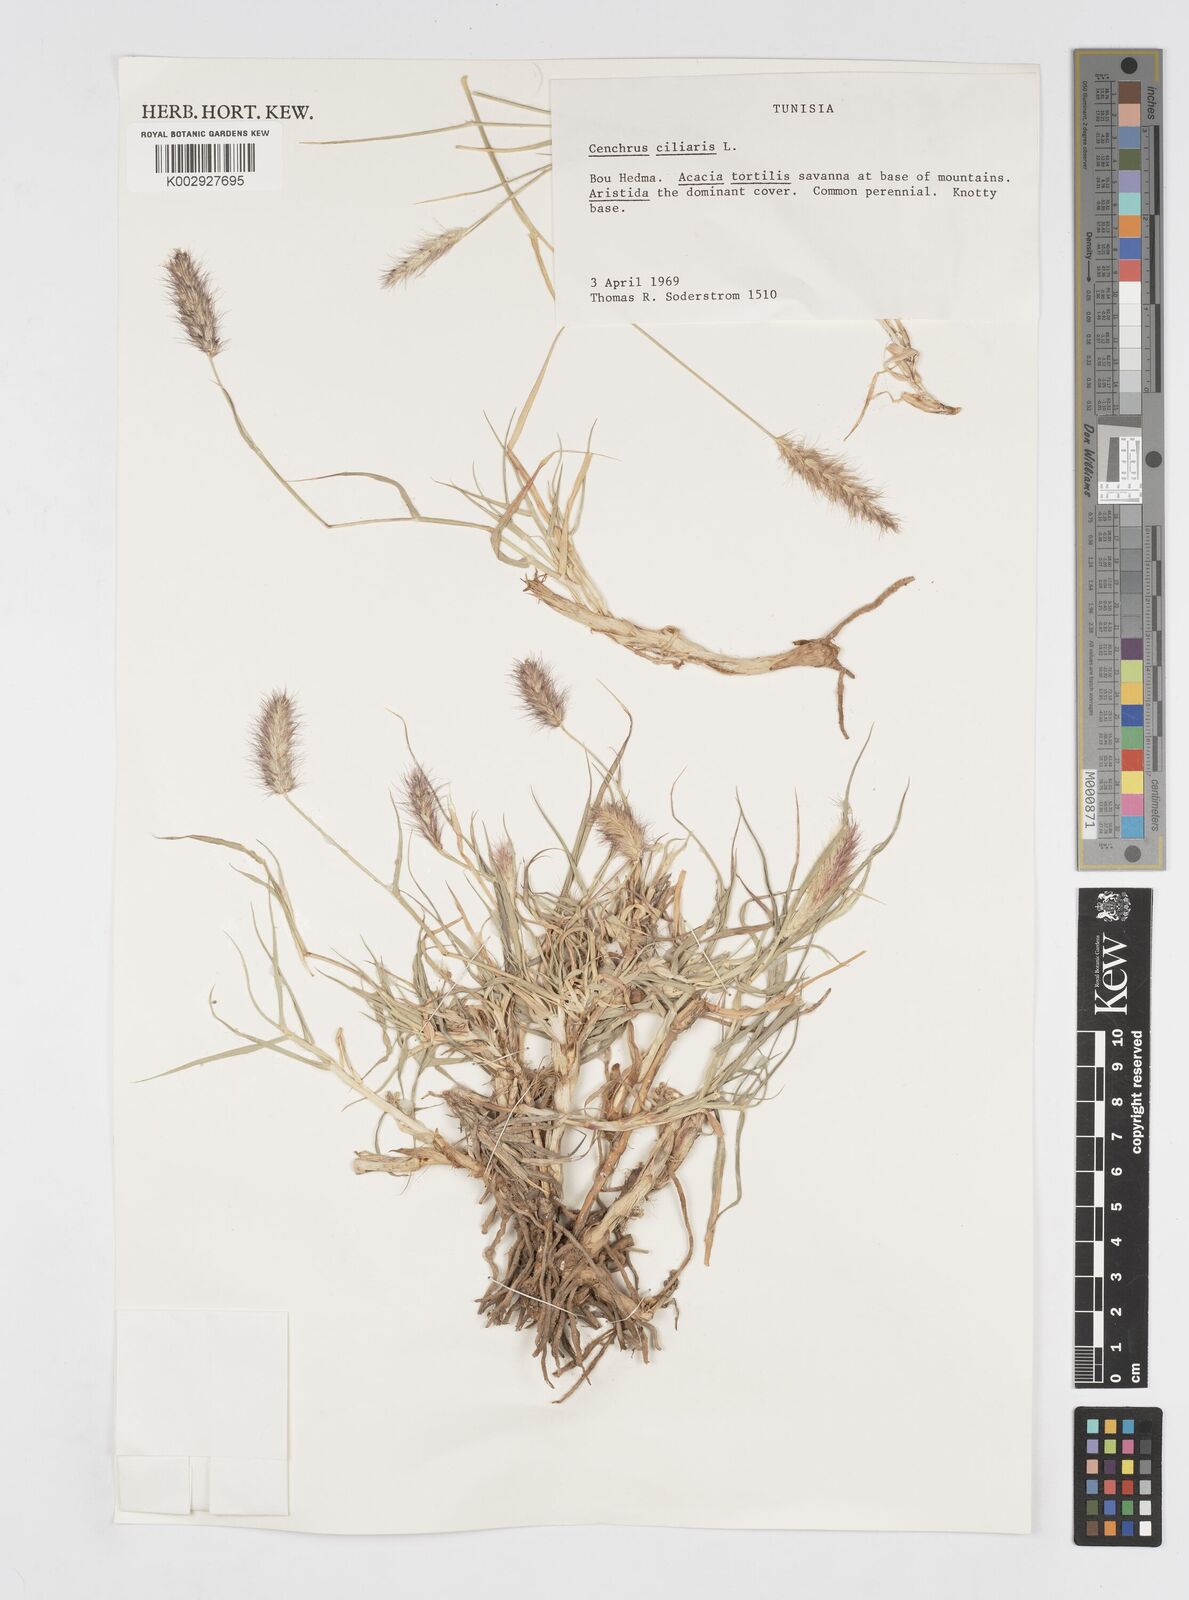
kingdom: Plantae
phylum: Tracheophyta
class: Liliopsida
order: Poales
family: Poaceae
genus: Cenchrus
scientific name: Cenchrus ciliaris
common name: Buffelgrass
